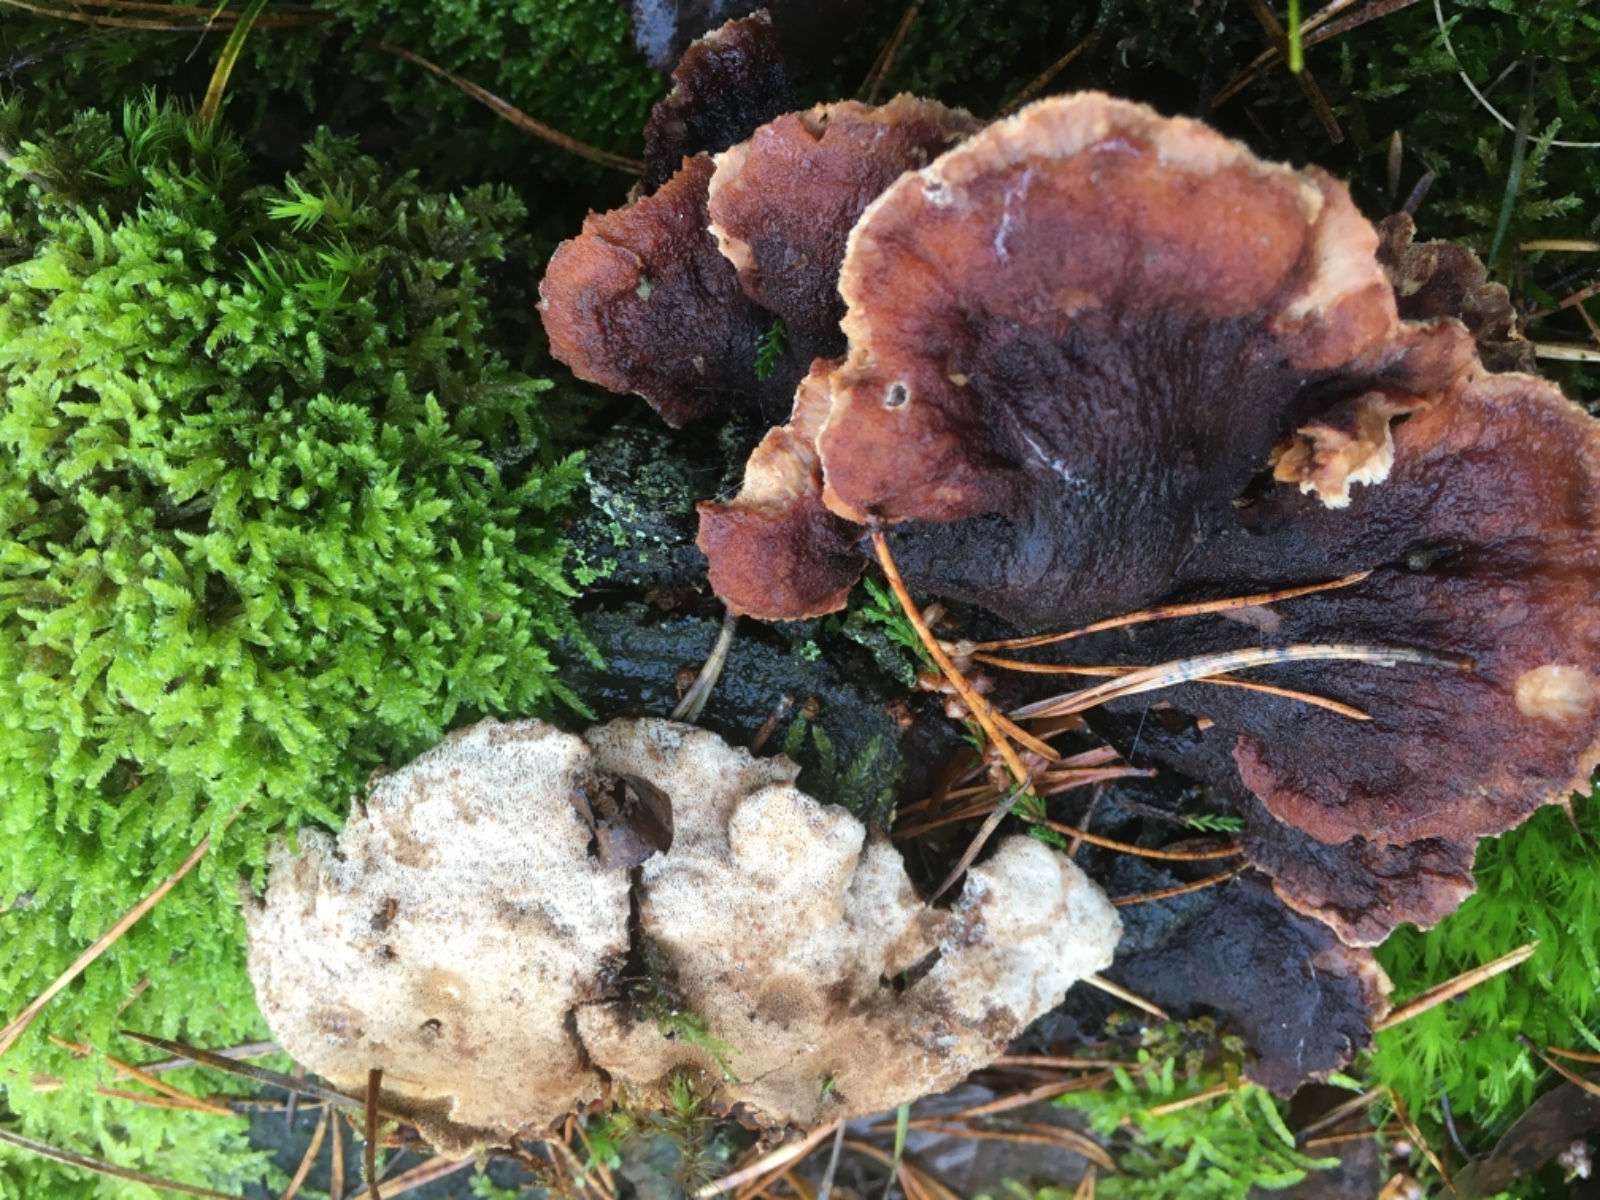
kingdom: Fungi
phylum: Basidiomycota
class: Agaricomycetes
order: Polyporales
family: Ischnodermataceae
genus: Ischnoderma
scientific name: Ischnoderma benzoinum
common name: gran-tjæreporesvamp
